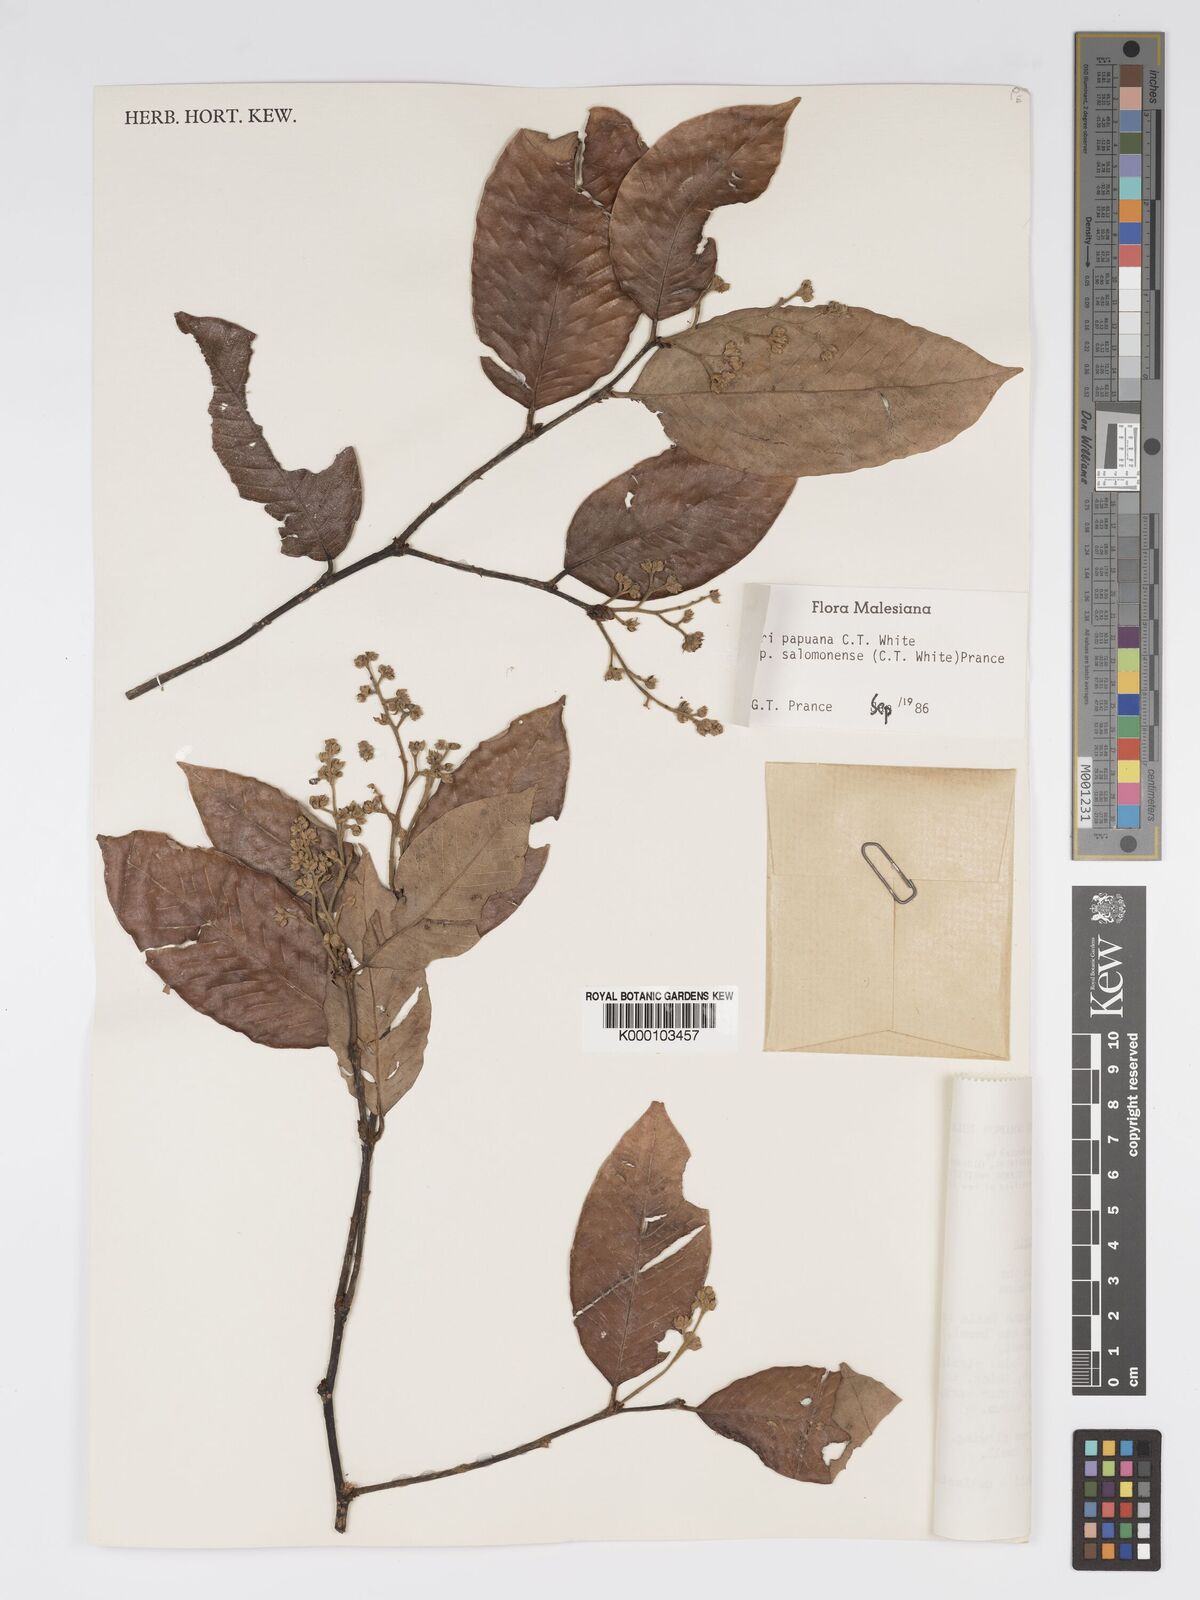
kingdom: Plantae
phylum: Tracheophyta
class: Magnoliopsida
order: Malpighiales
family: Chrysobalanaceae
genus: Parinari
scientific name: Parinari papuana
